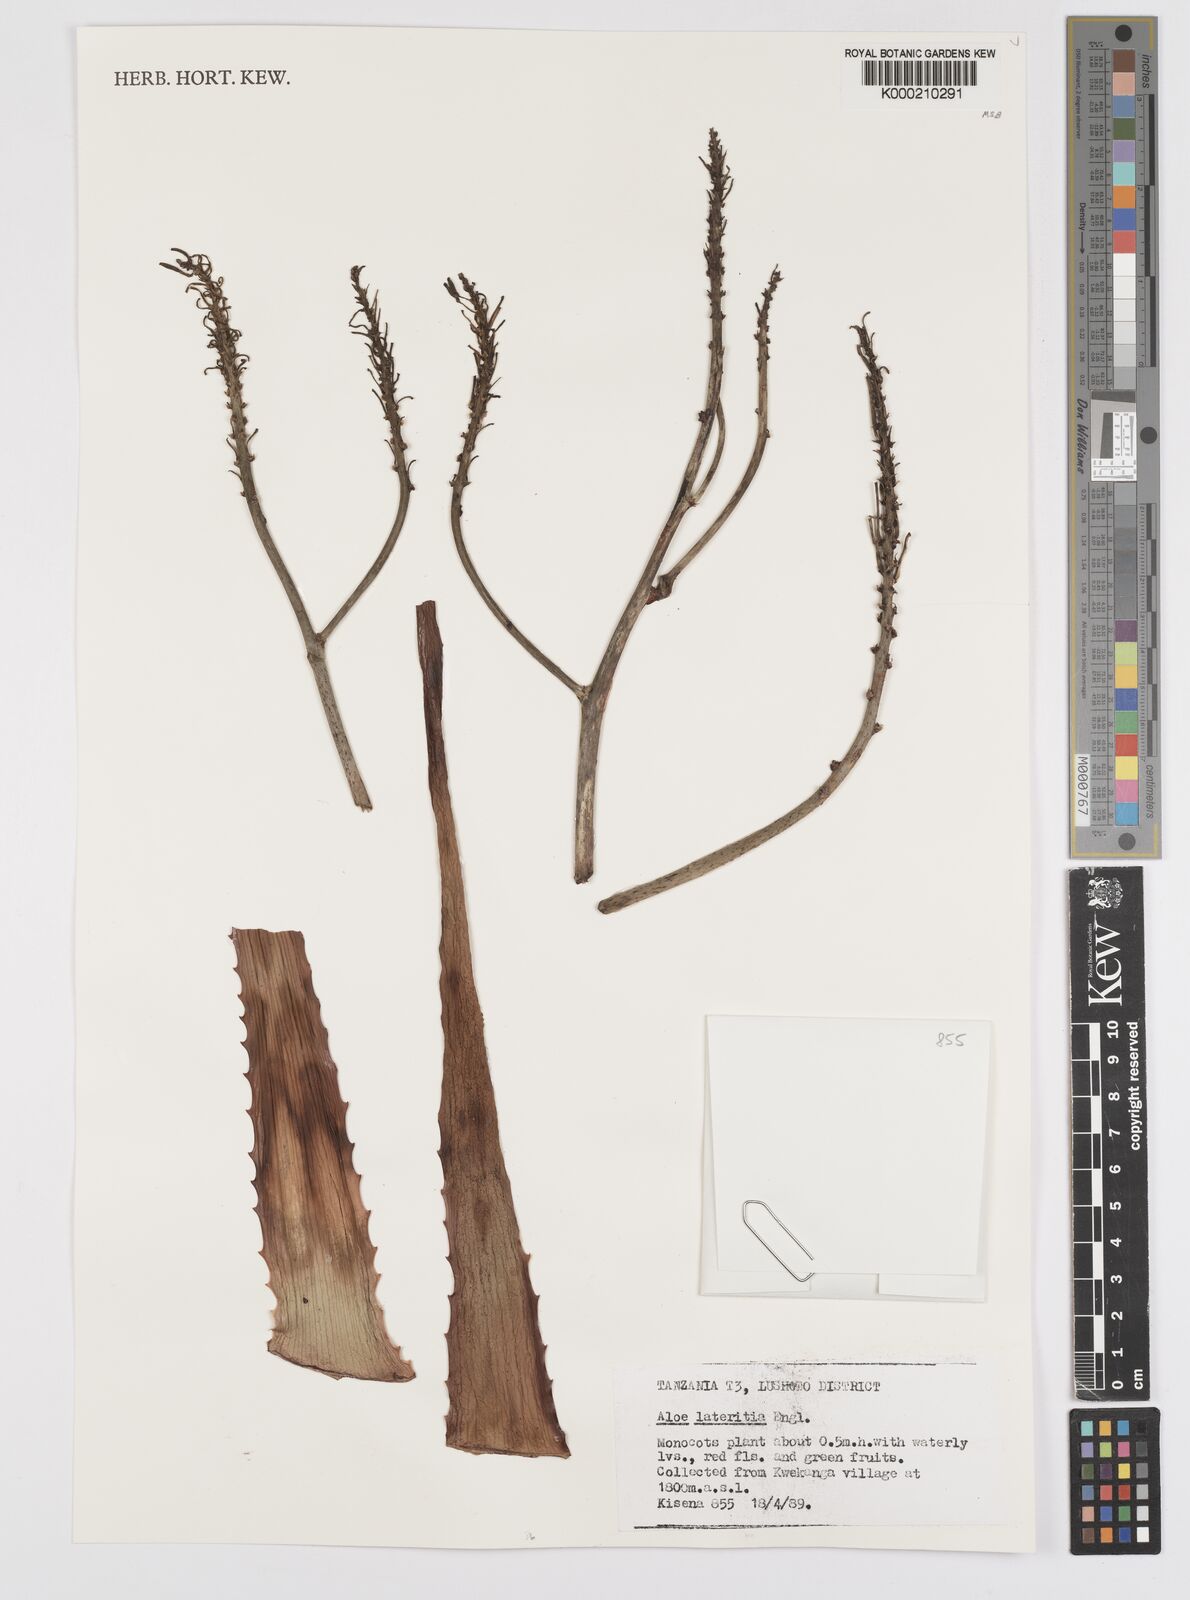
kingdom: Plantae
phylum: Tracheophyta
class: Liliopsida
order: Asparagales
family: Asphodelaceae
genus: Aloe
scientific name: Aloe lateritia
